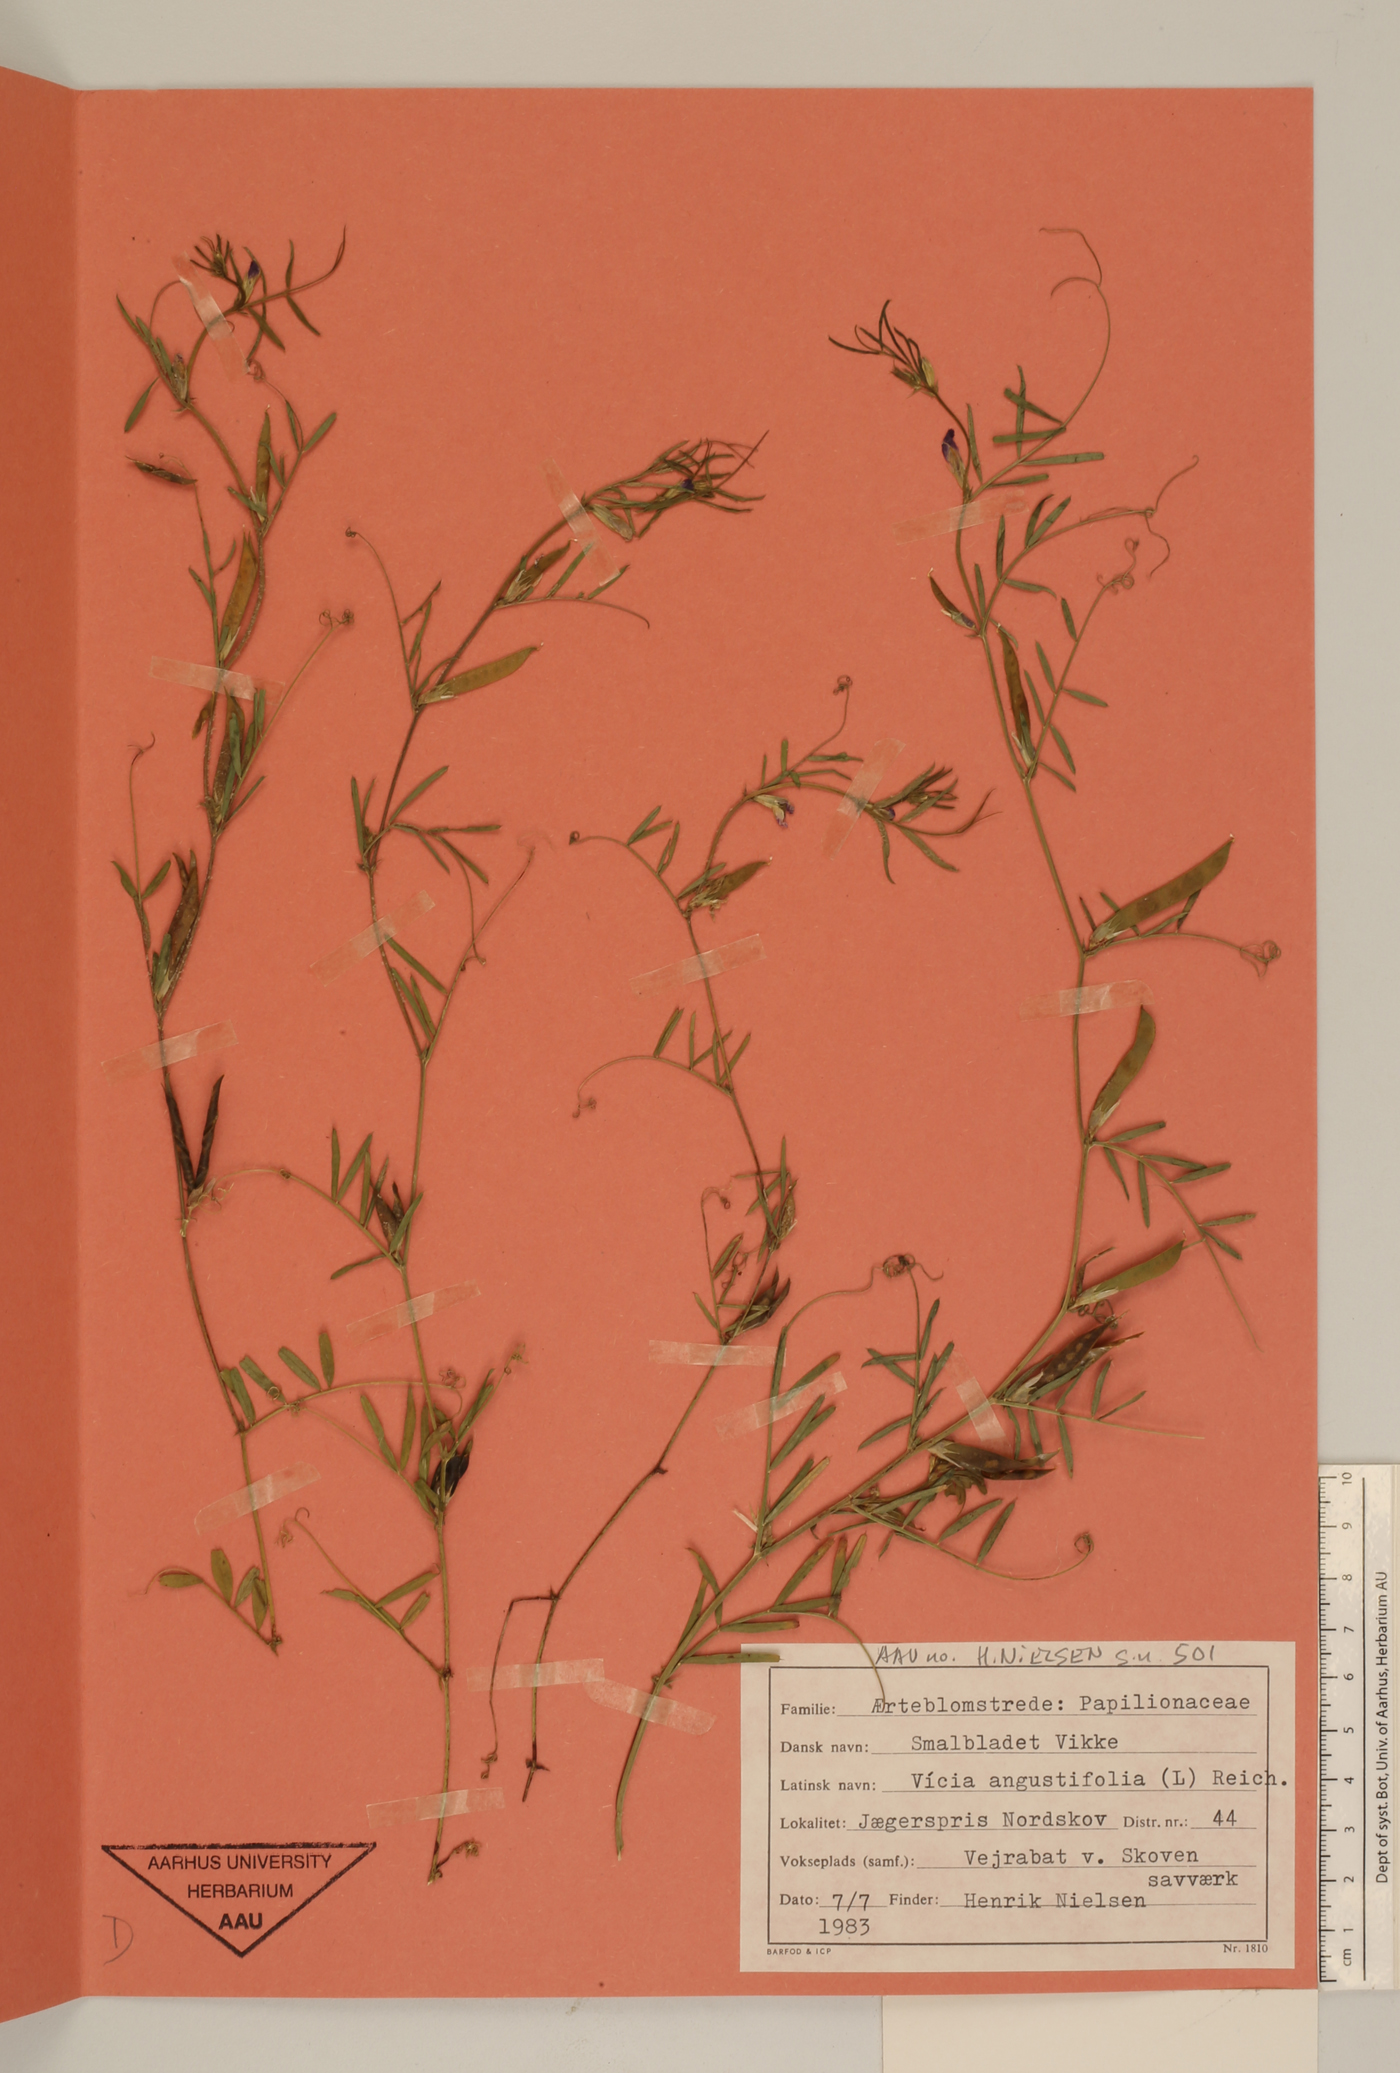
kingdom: Plantae
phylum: Tracheophyta
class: Magnoliopsida
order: Fabales
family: Fabaceae
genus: Vicia
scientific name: Vicia sativa
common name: Garden vetch
